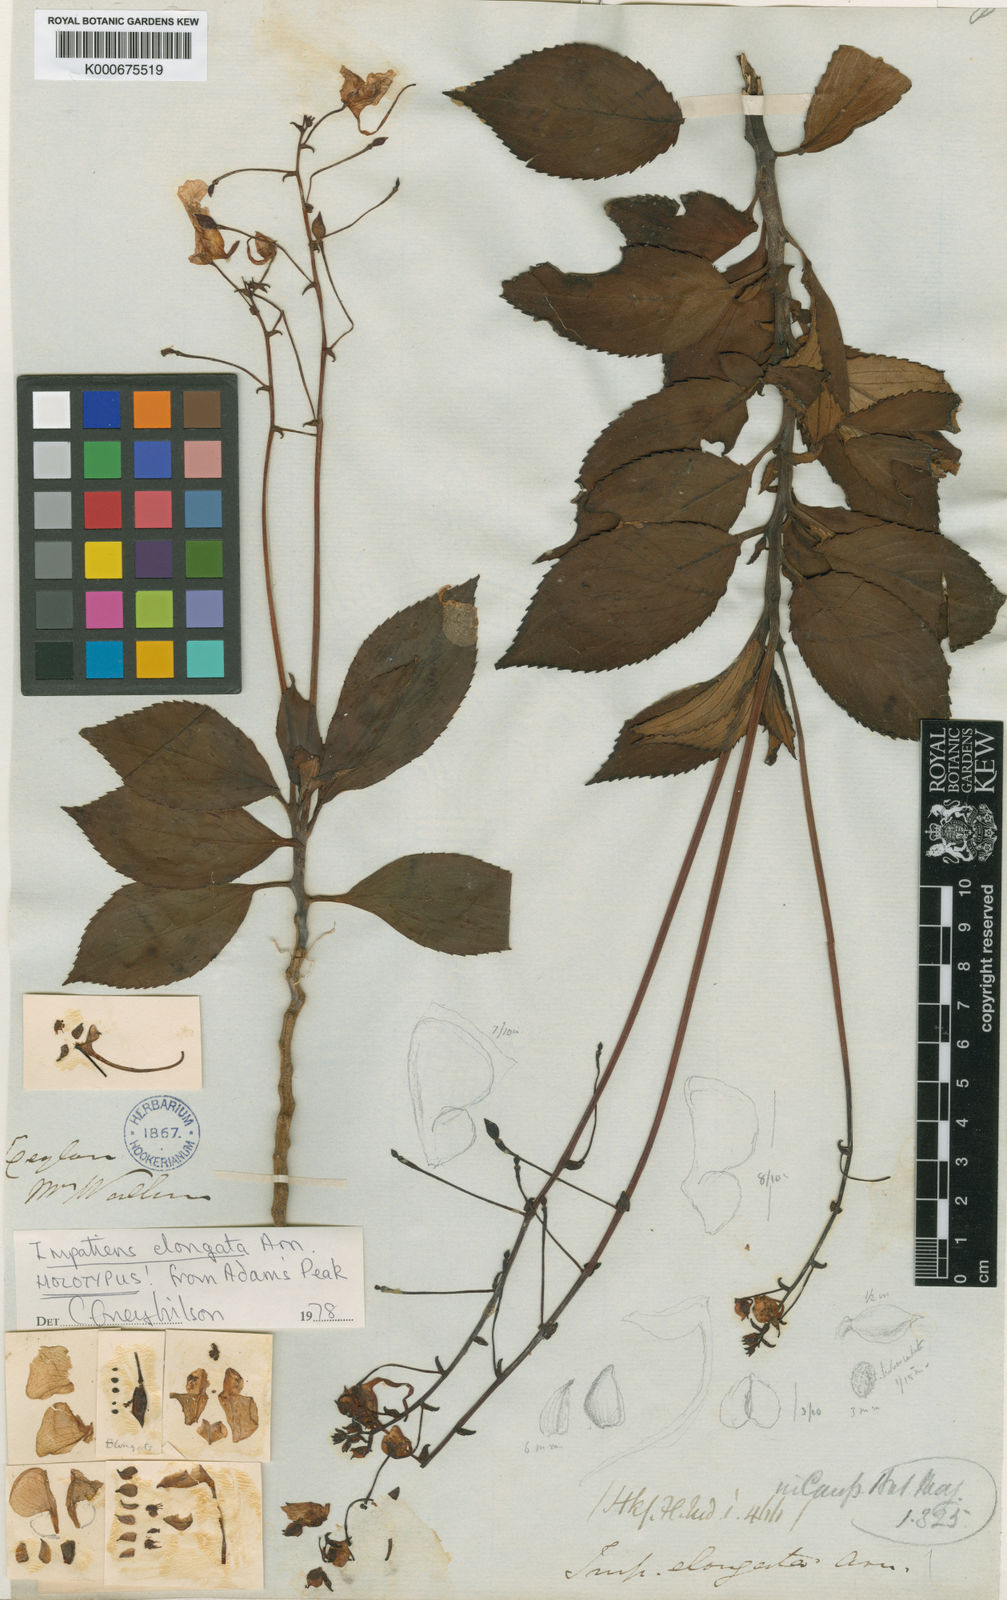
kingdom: Plantae
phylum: Tracheophyta
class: Magnoliopsida
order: Ericales
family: Balsaminaceae
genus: Impatiens
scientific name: Impatiens elongata
